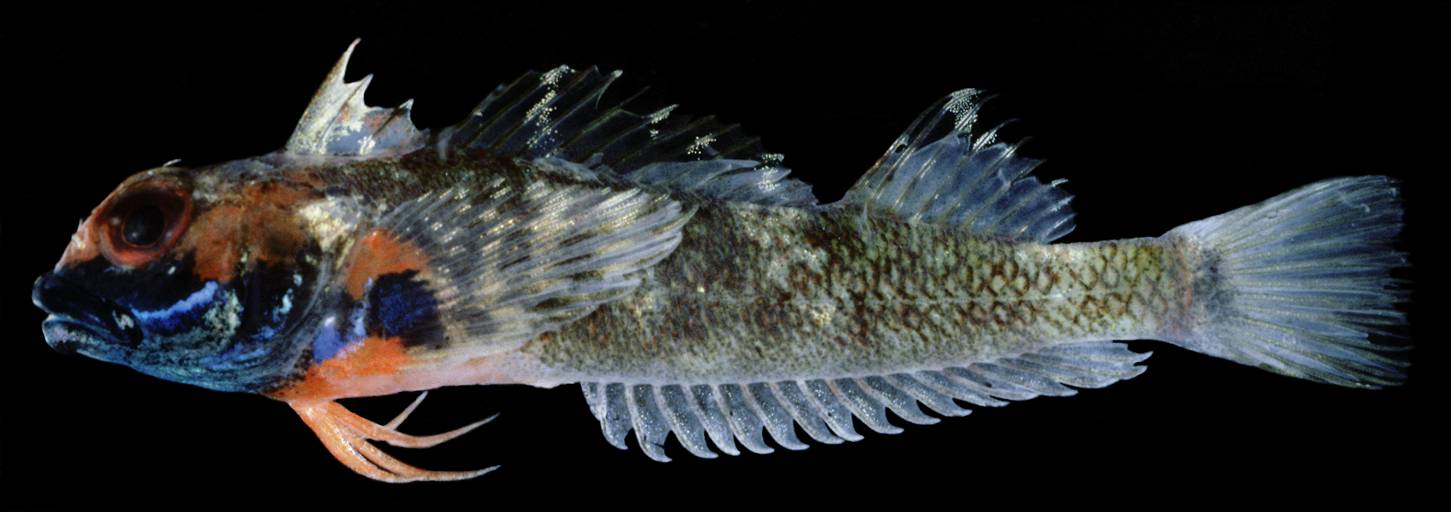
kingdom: Animalia
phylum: Chordata
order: Perciformes
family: Tripterygiidae
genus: Helcogramma
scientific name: Helcogramma ellioti
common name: Red-eye threefin
